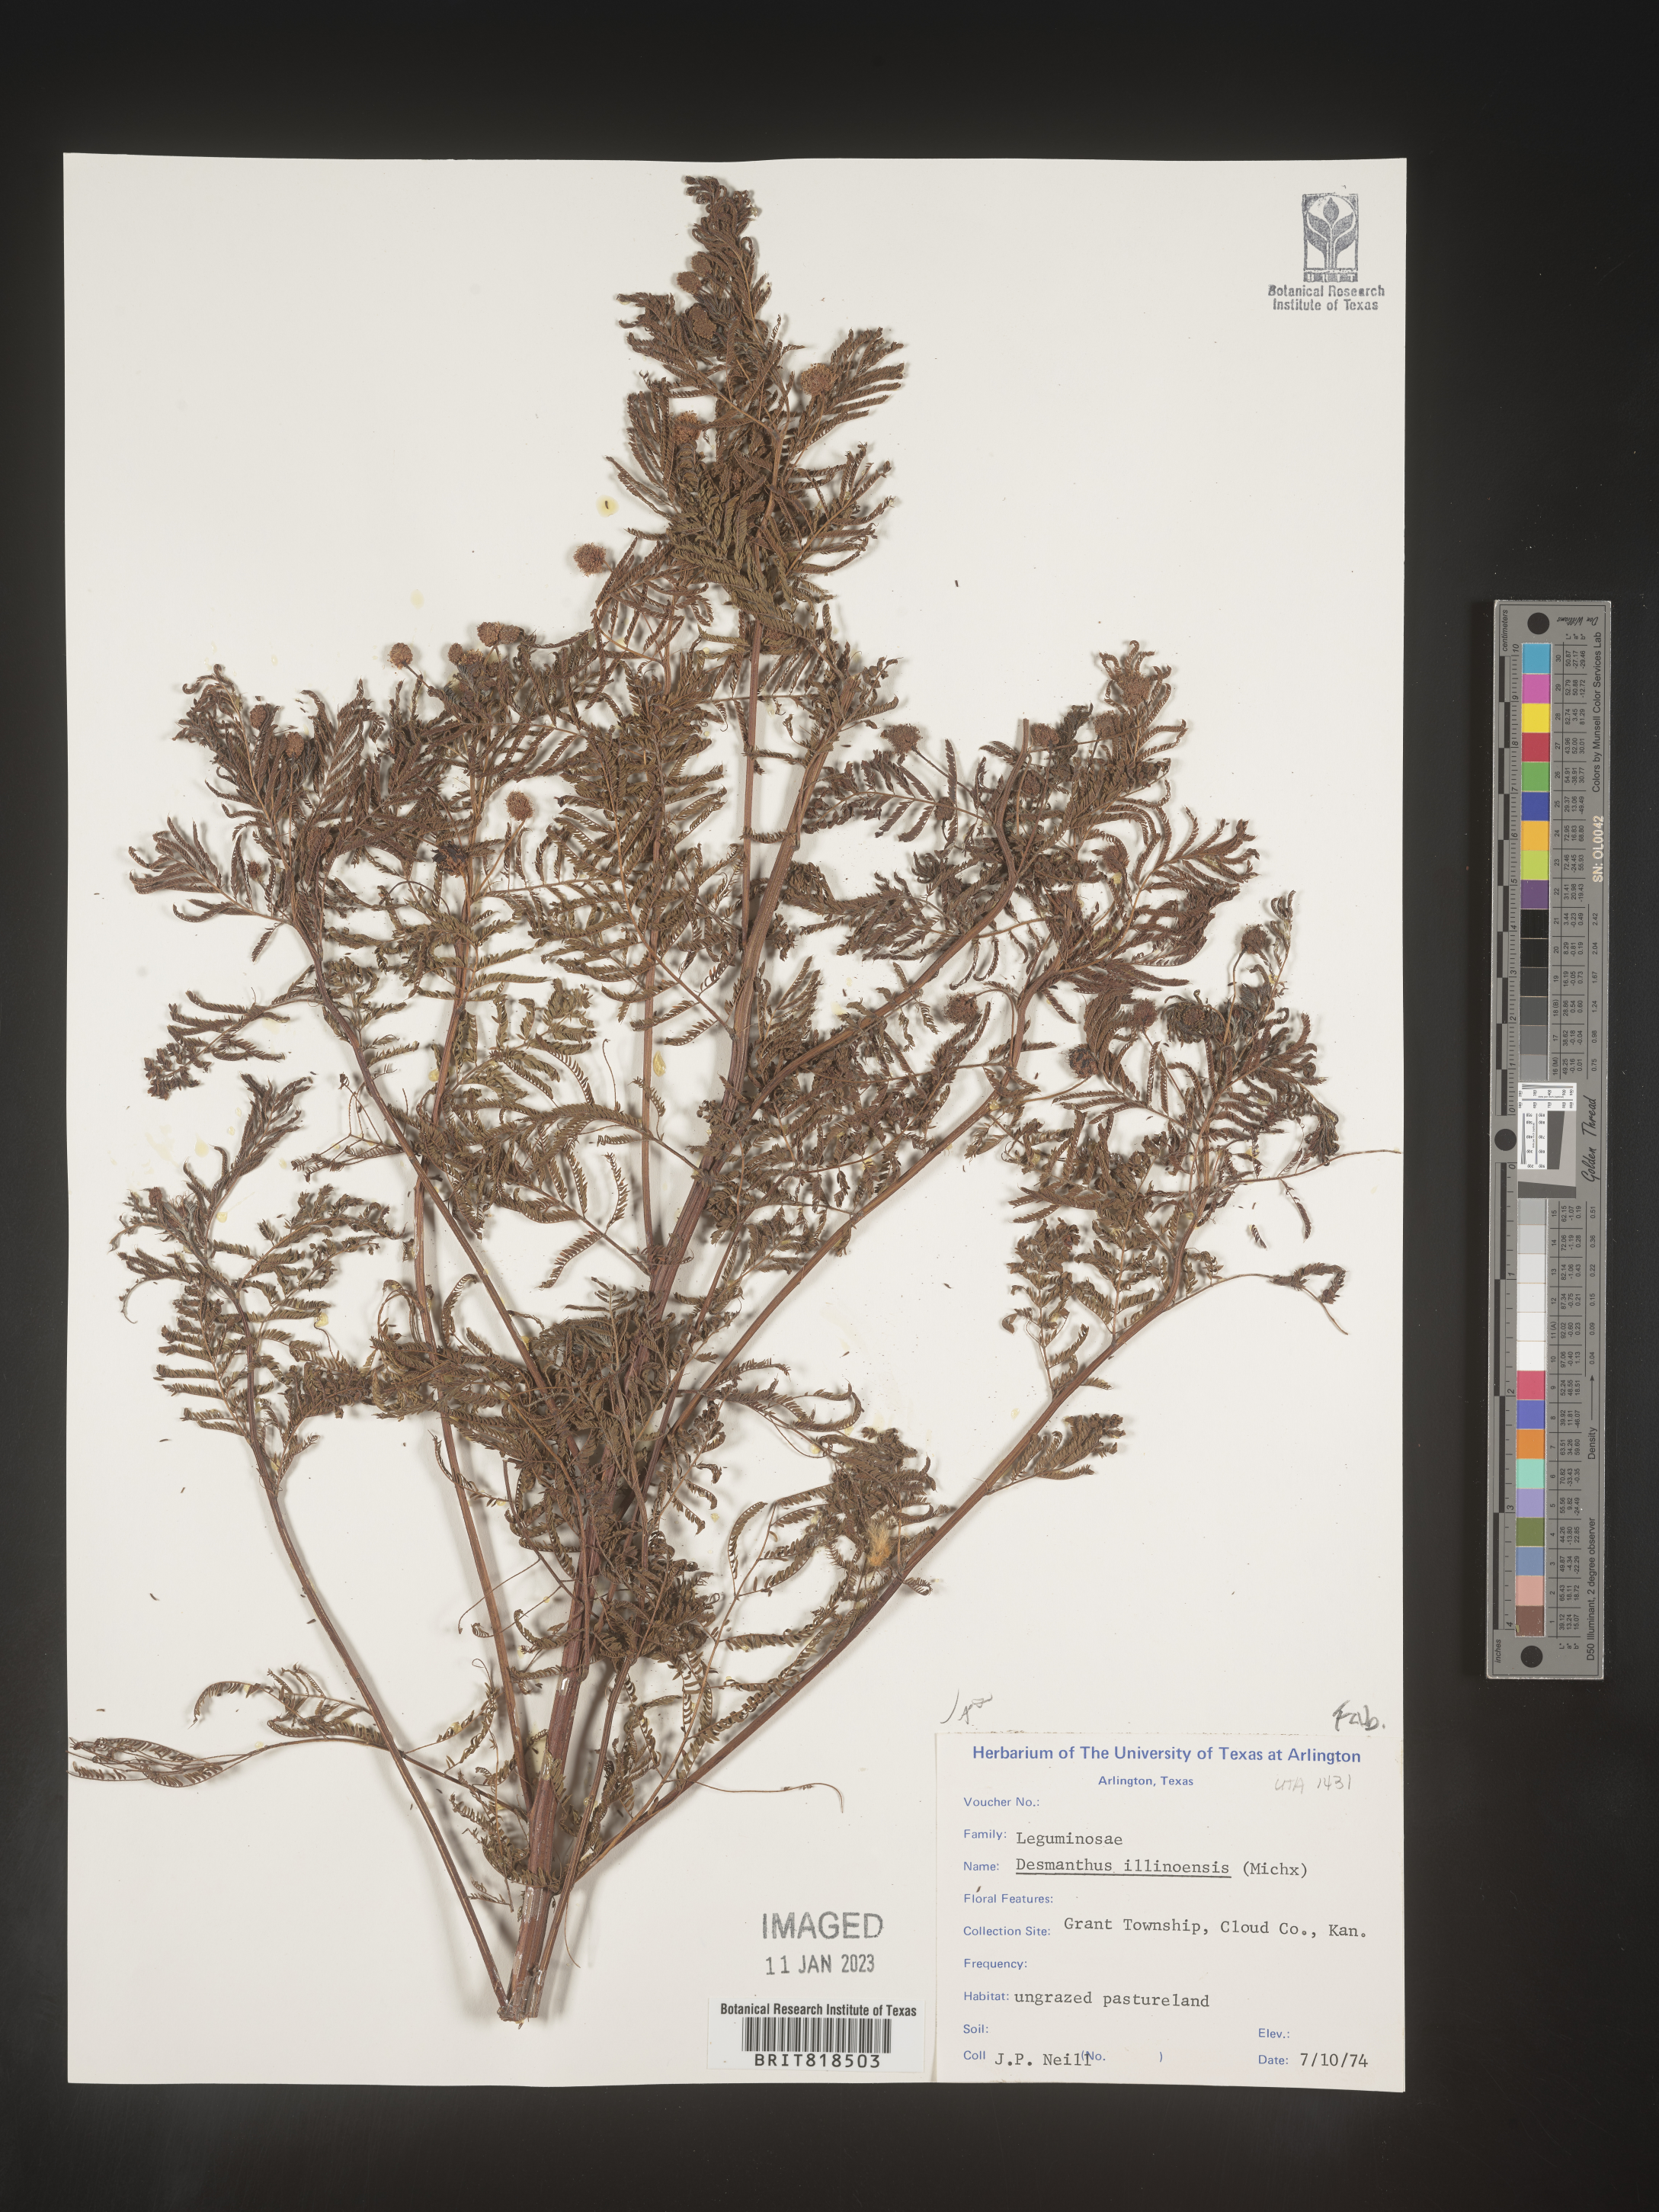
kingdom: Plantae
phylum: Tracheophyta
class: Magnoliopsida
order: Fabales
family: Fabaceae
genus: Desmanthus
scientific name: Desmanthus illinoensis
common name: Illinois bundle-flower
